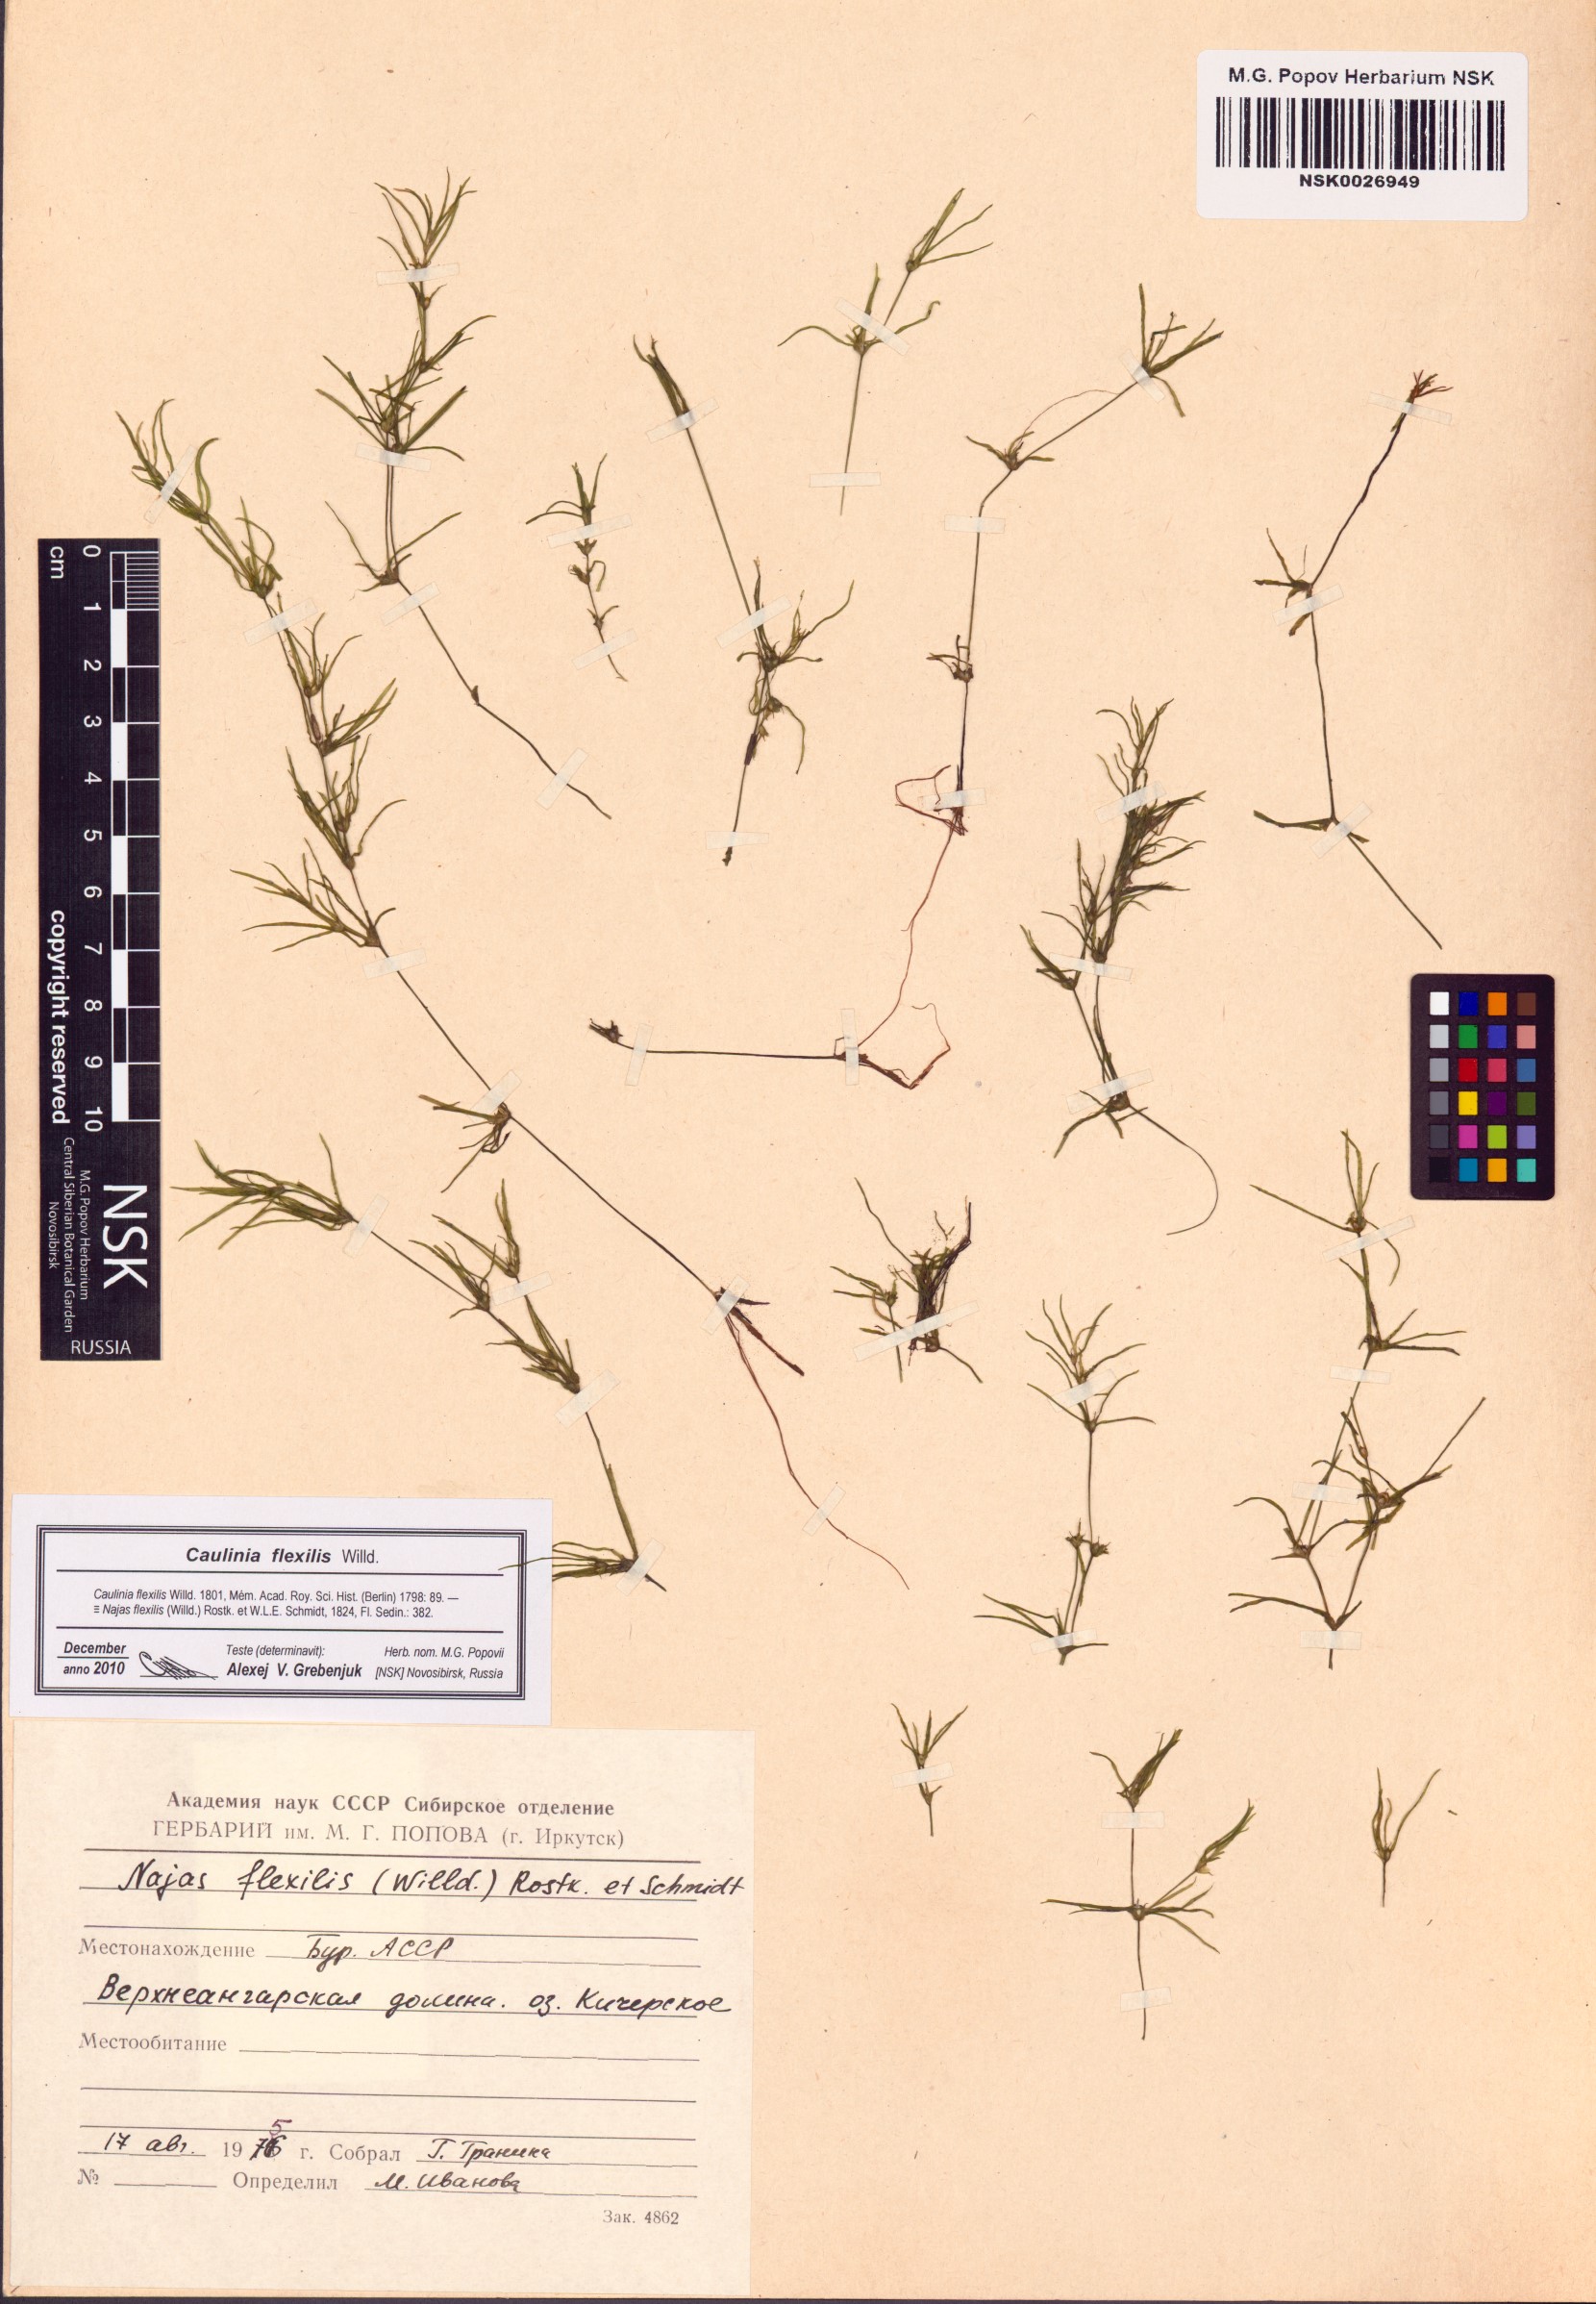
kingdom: Plantae
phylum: Tracheophyta
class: Liliopsida
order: Alismatales
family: Hydrocharitaceae
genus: Najas
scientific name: Najas flexilis
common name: Slender naiad
